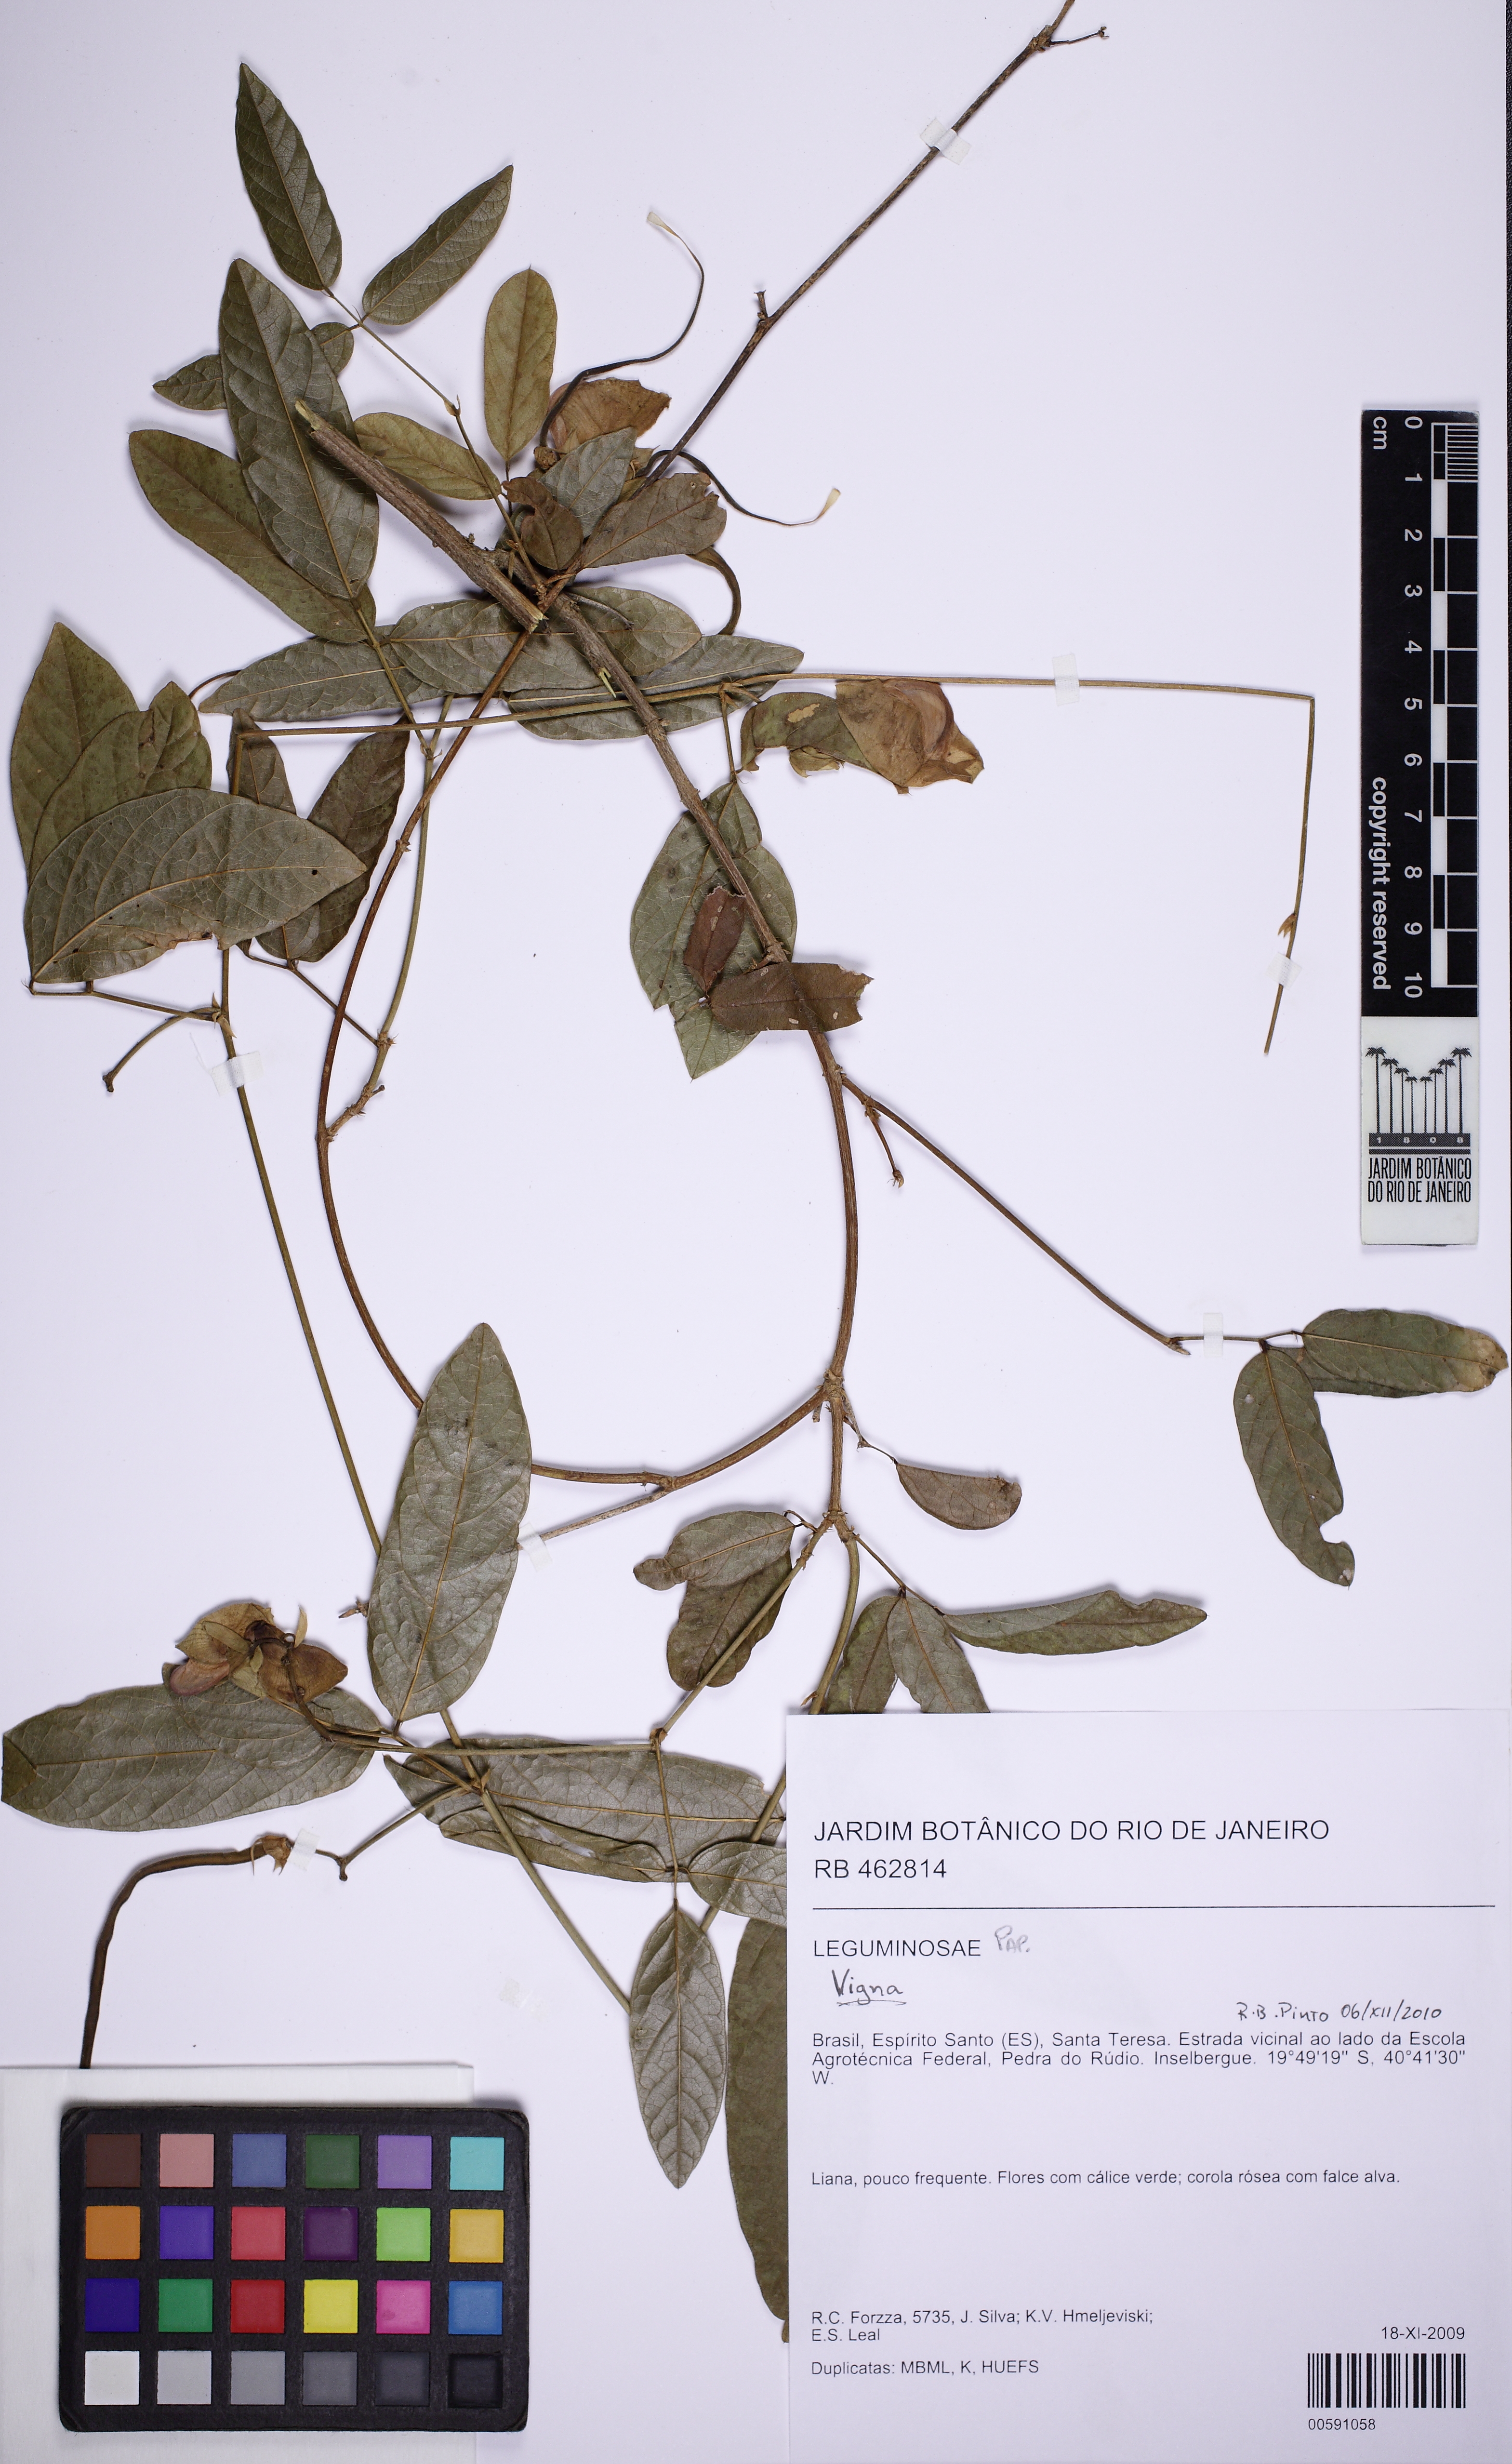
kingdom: Plantae
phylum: Tracheophyta
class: Magnoliopsida
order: Fabales
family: Fabaceae
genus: Centrosema
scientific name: Centrosema
